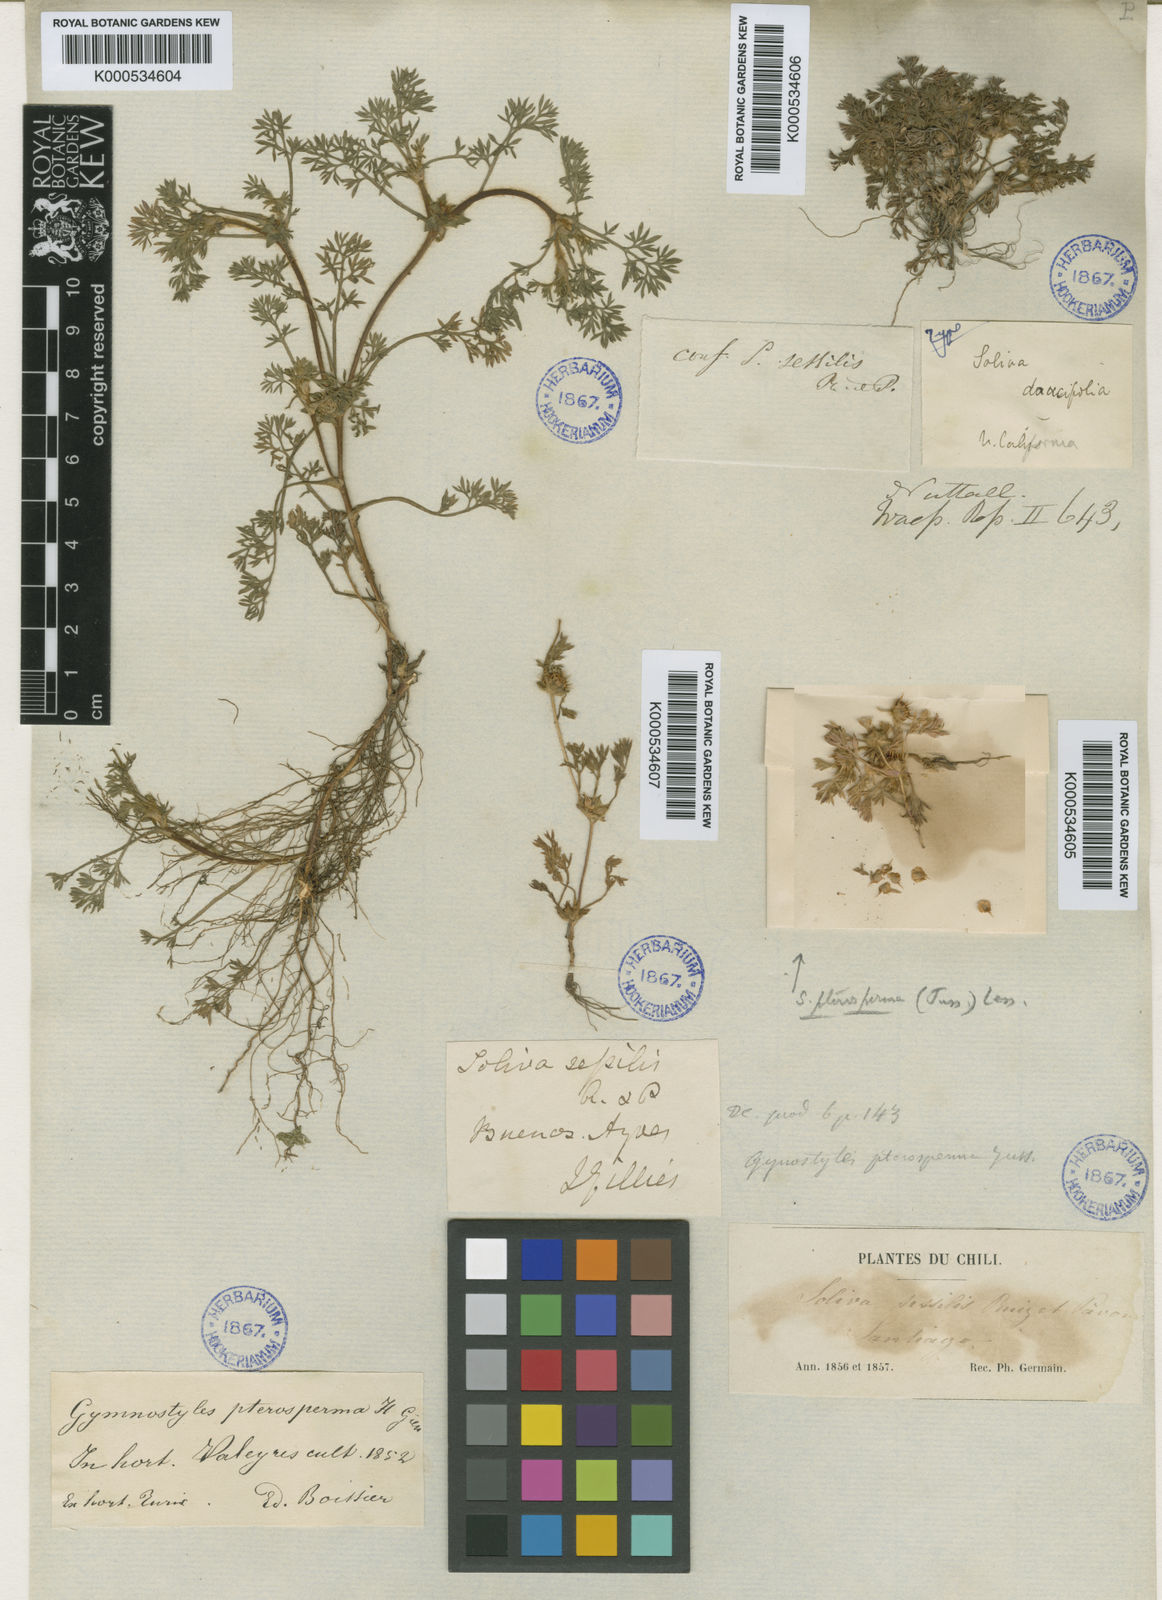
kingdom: Plantae
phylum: Tracheophyta
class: Magnoliopsida
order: Asterales
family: Asteraceae
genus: Soliva
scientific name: Soliva sessilis
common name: Field burrweed
